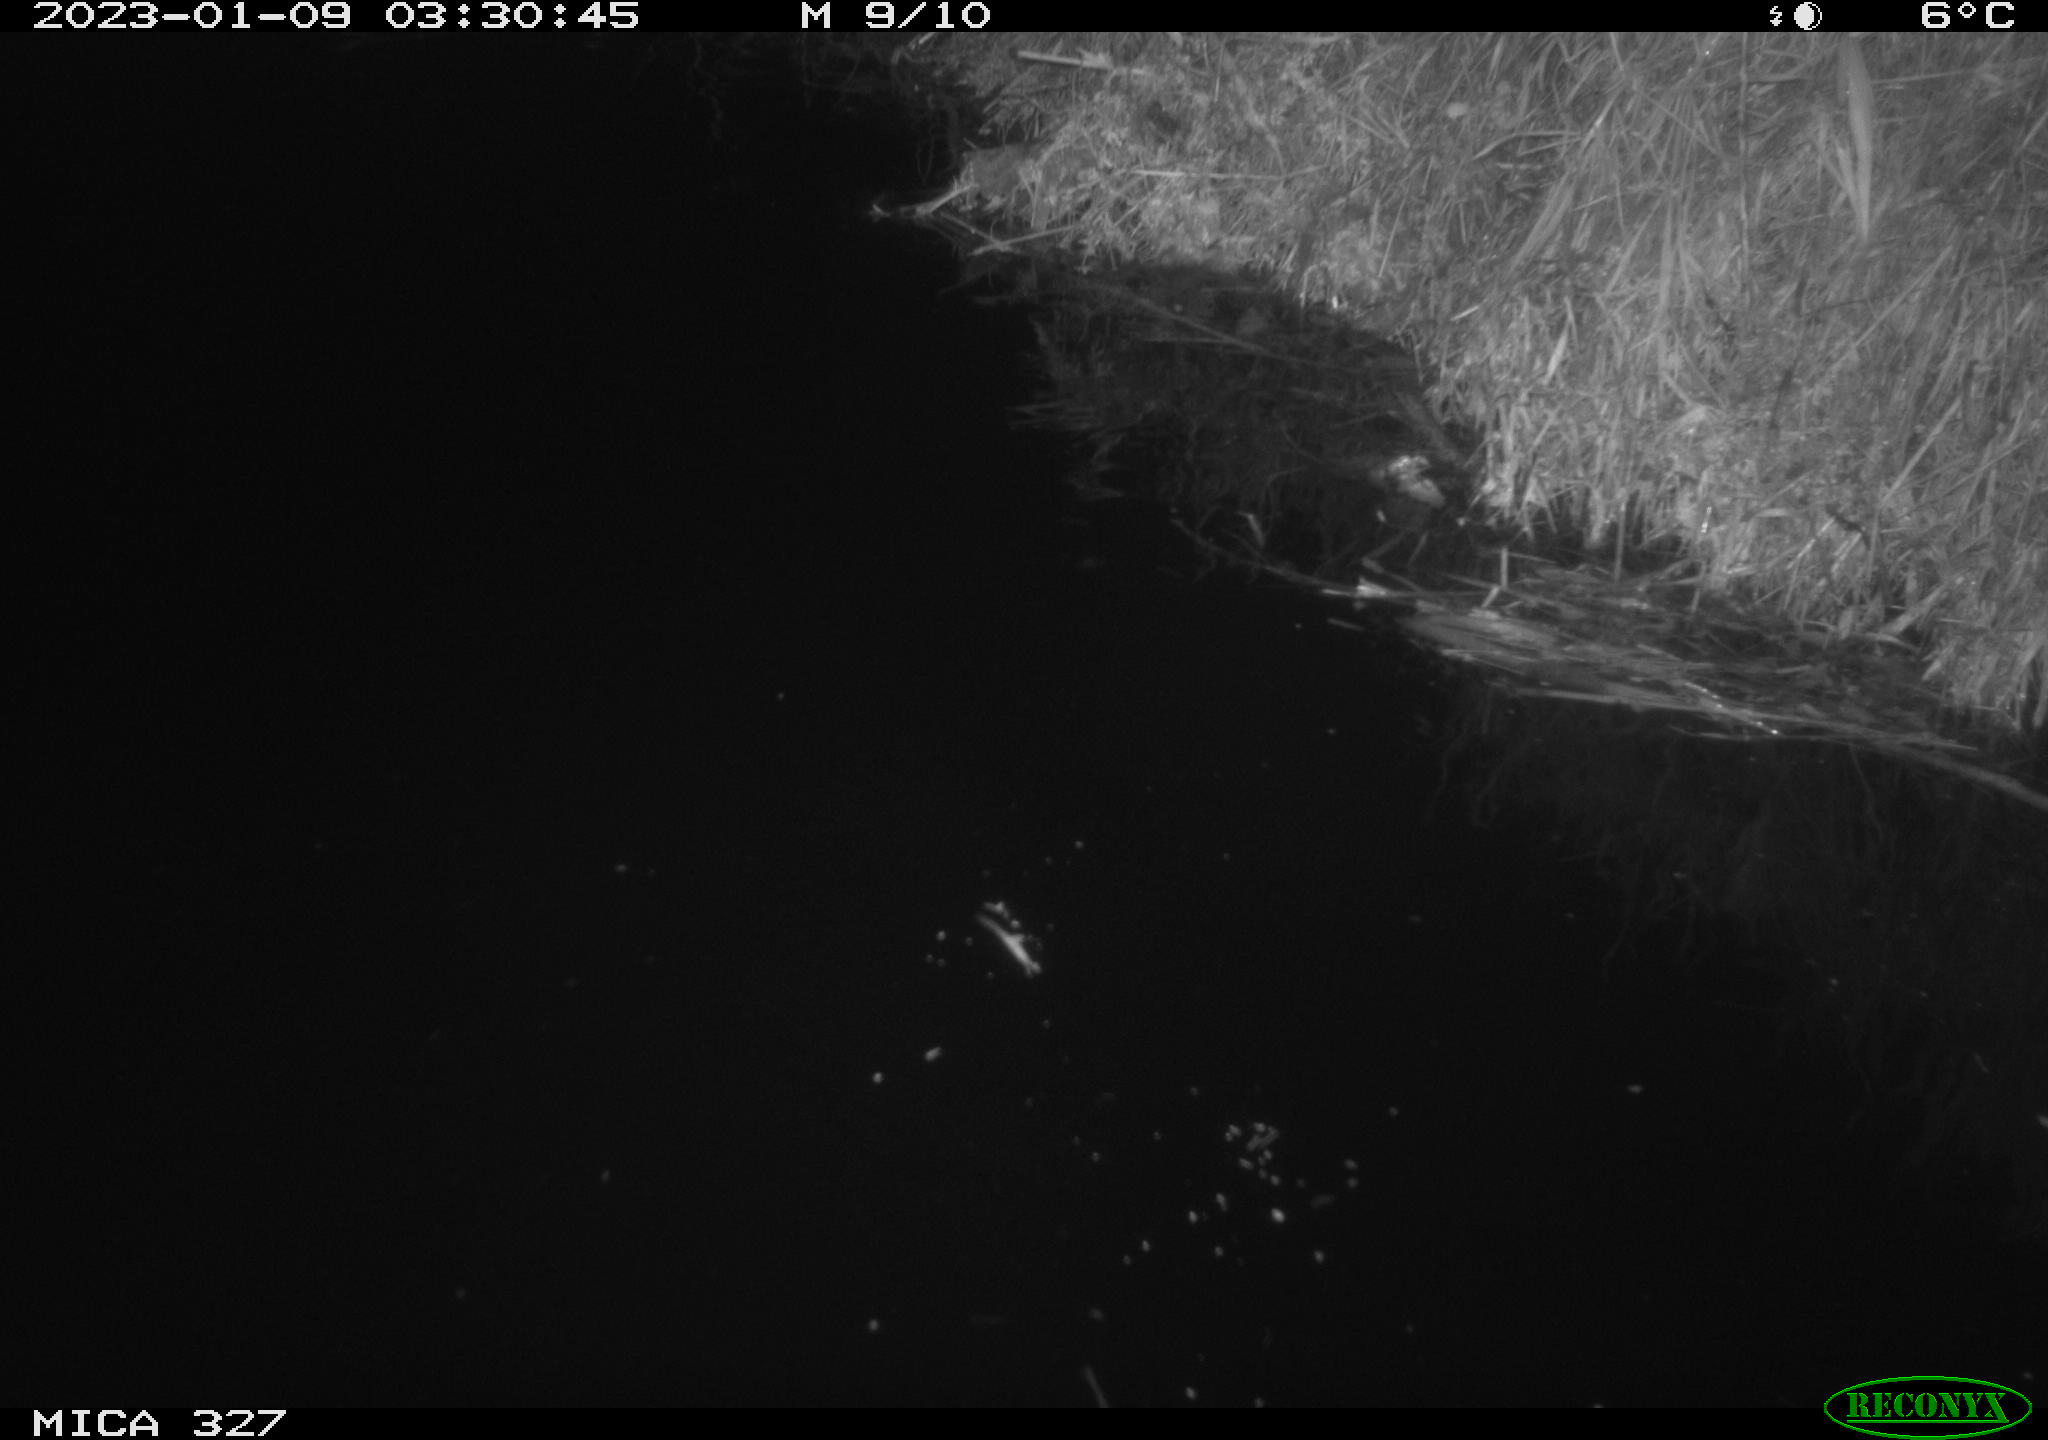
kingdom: Animalia
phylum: Chordata
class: Mammalia
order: Rodentia
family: Cricetidae
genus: Ondatra
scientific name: Ondatra zibethicus
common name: Muskrat
